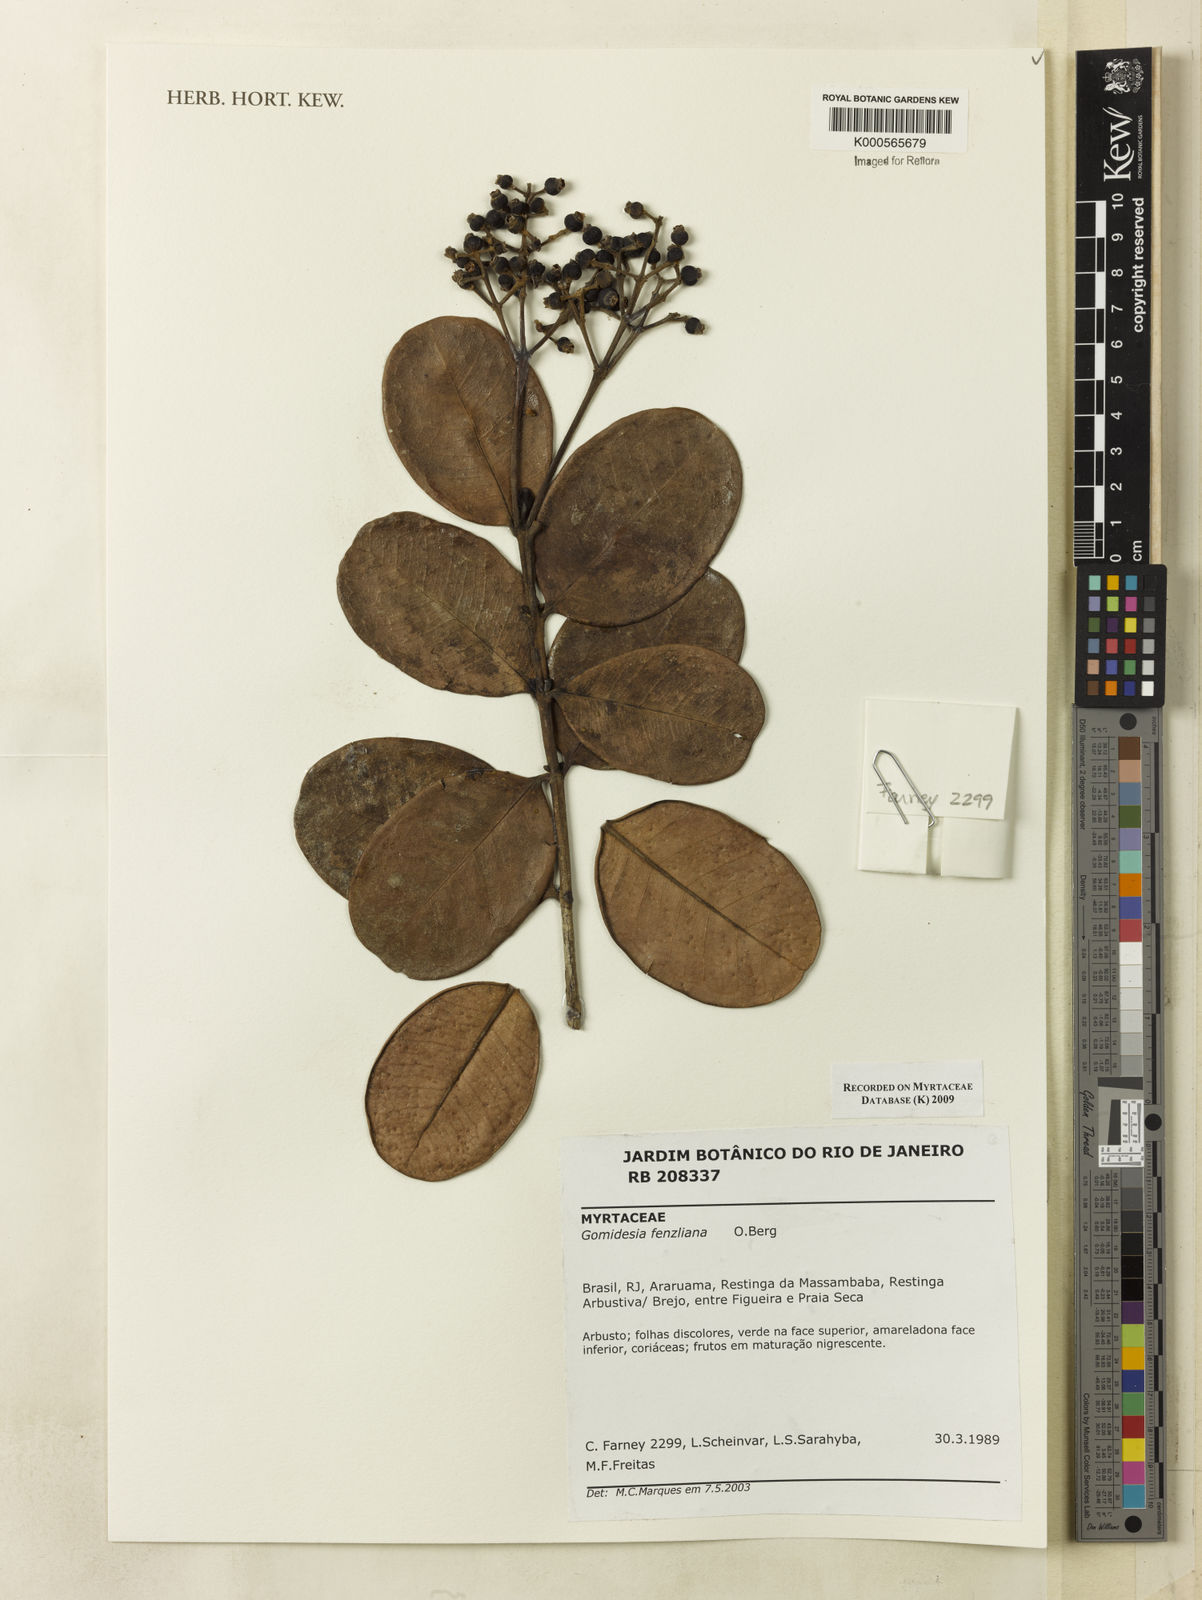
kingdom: Plantae
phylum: Tracheophyta
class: Magnoliopsida
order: Myrtales
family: Myrtaceae
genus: Myrcia
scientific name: Myrcia ilheosensis
